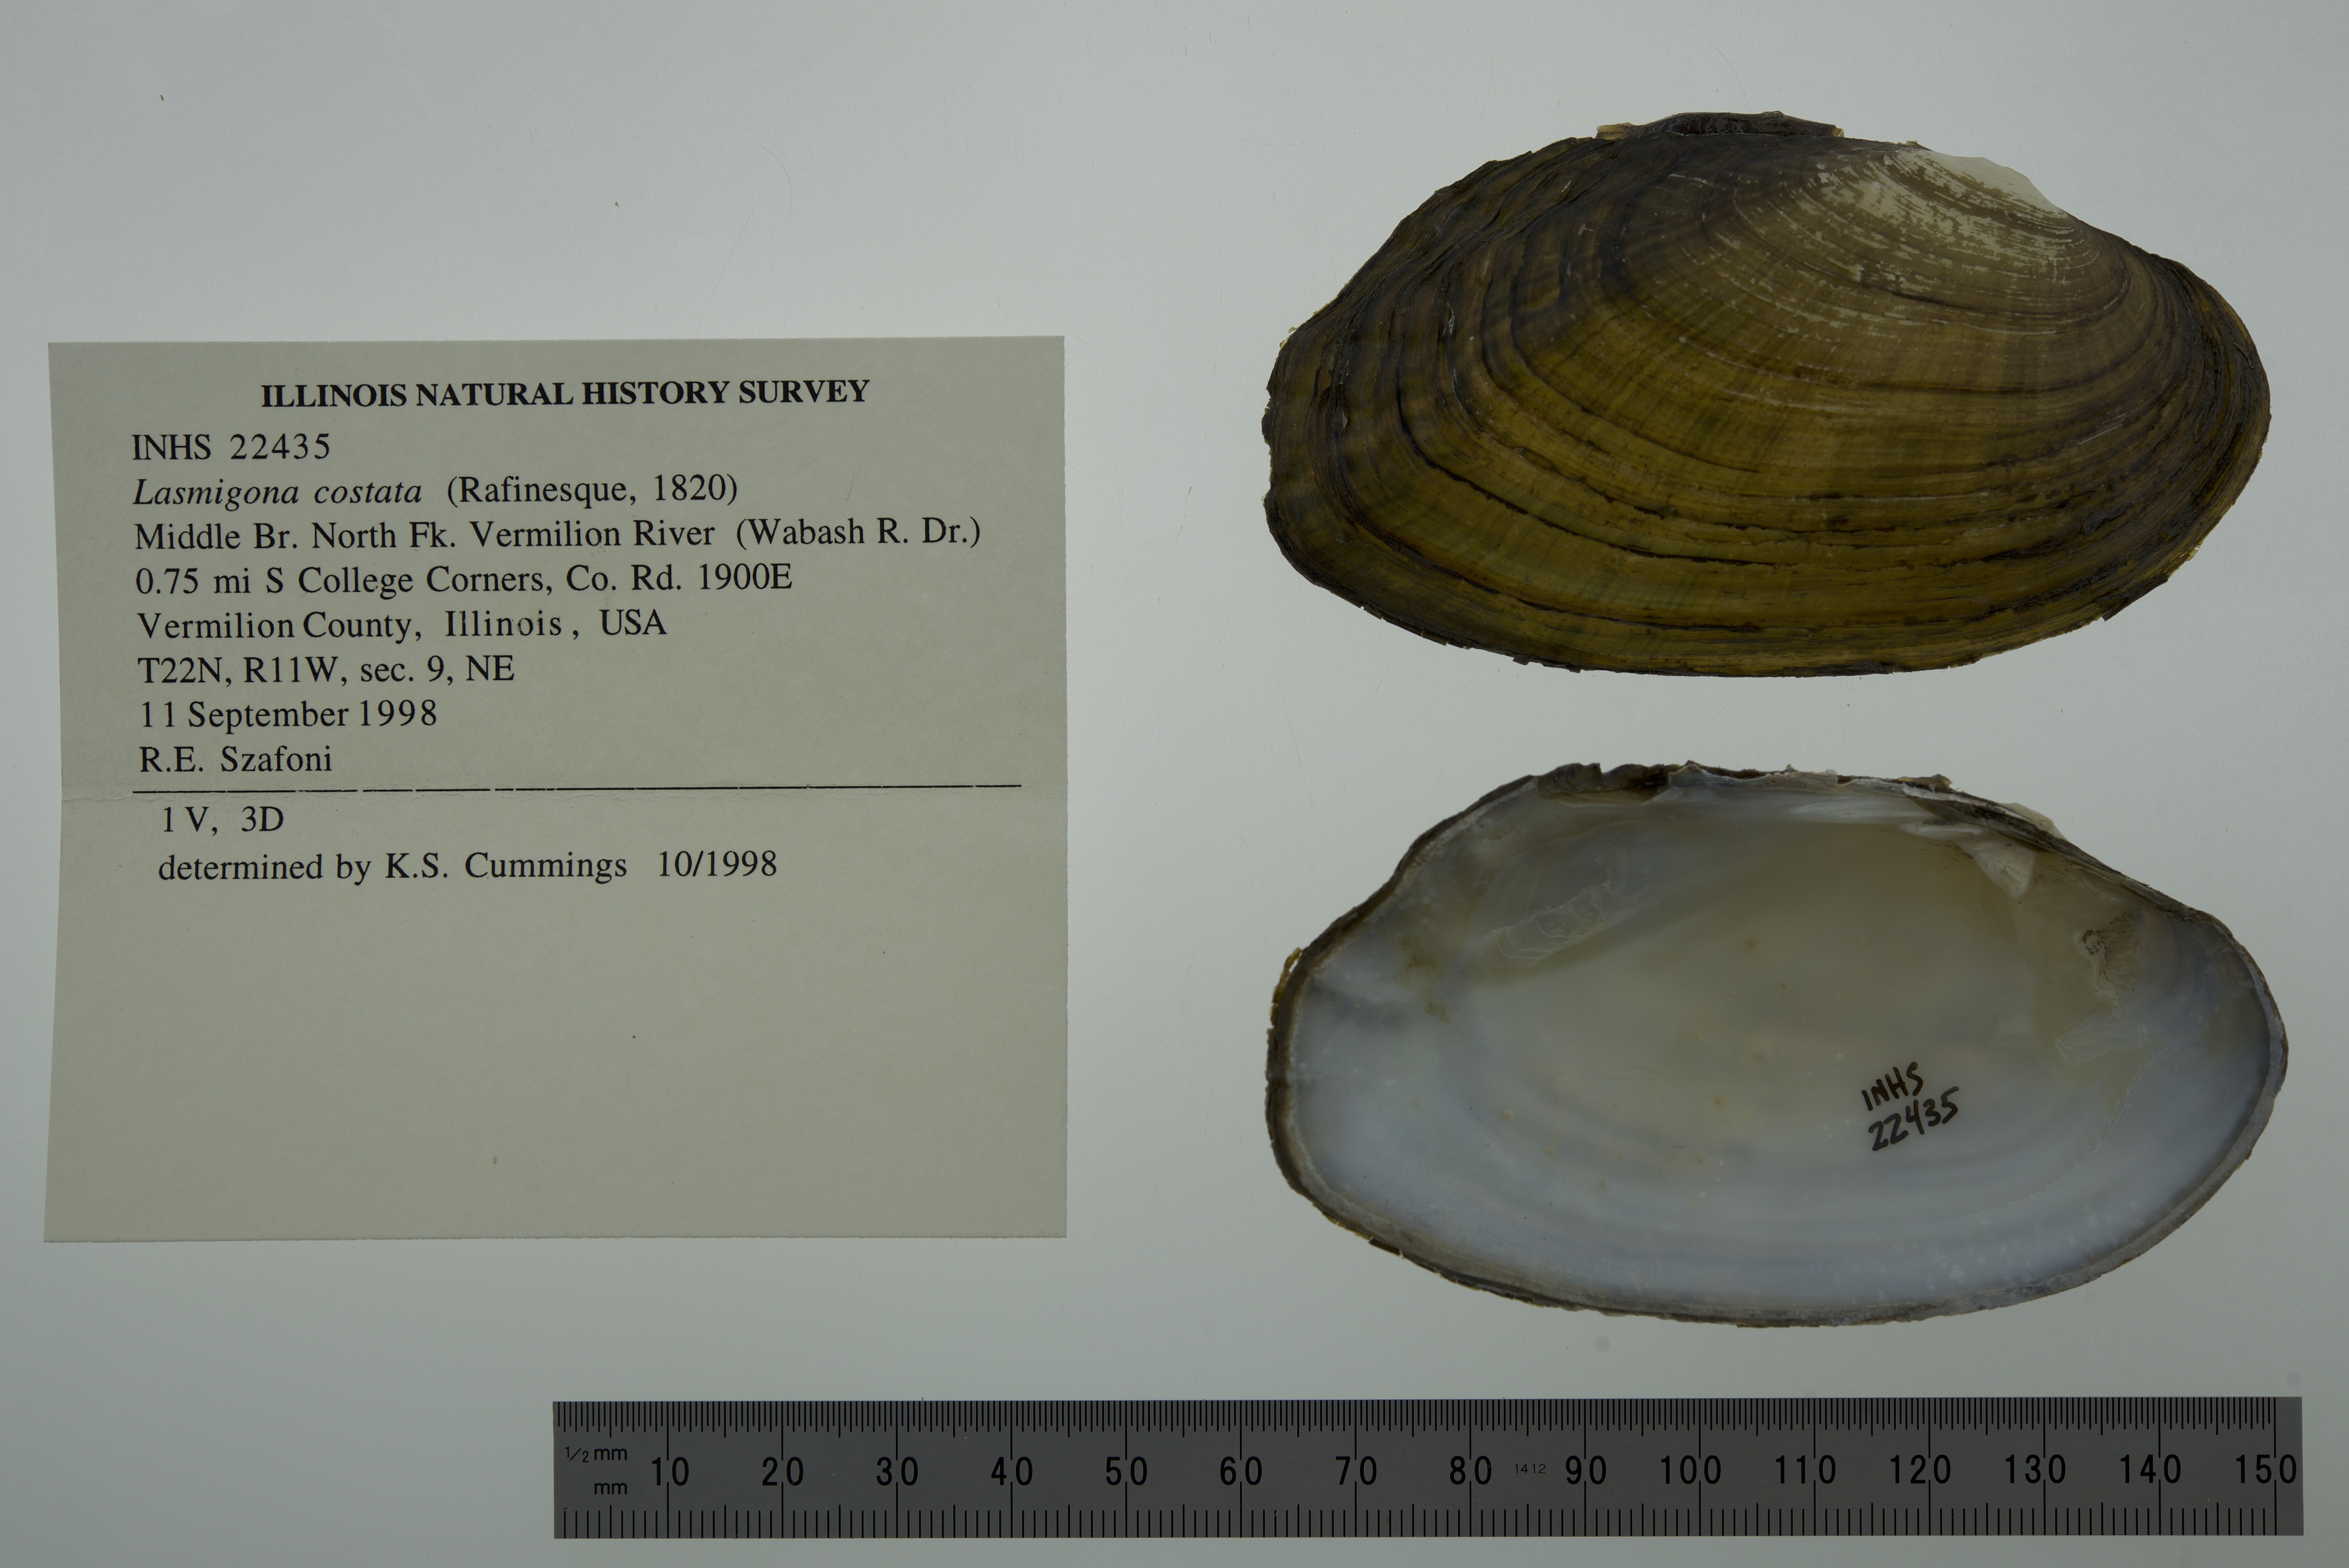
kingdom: Animalia
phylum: Mollusca
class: Bivalvia
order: Unionida
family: Unionidae
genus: Lasmigona
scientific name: Lasmigona costata
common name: Flutedshell
